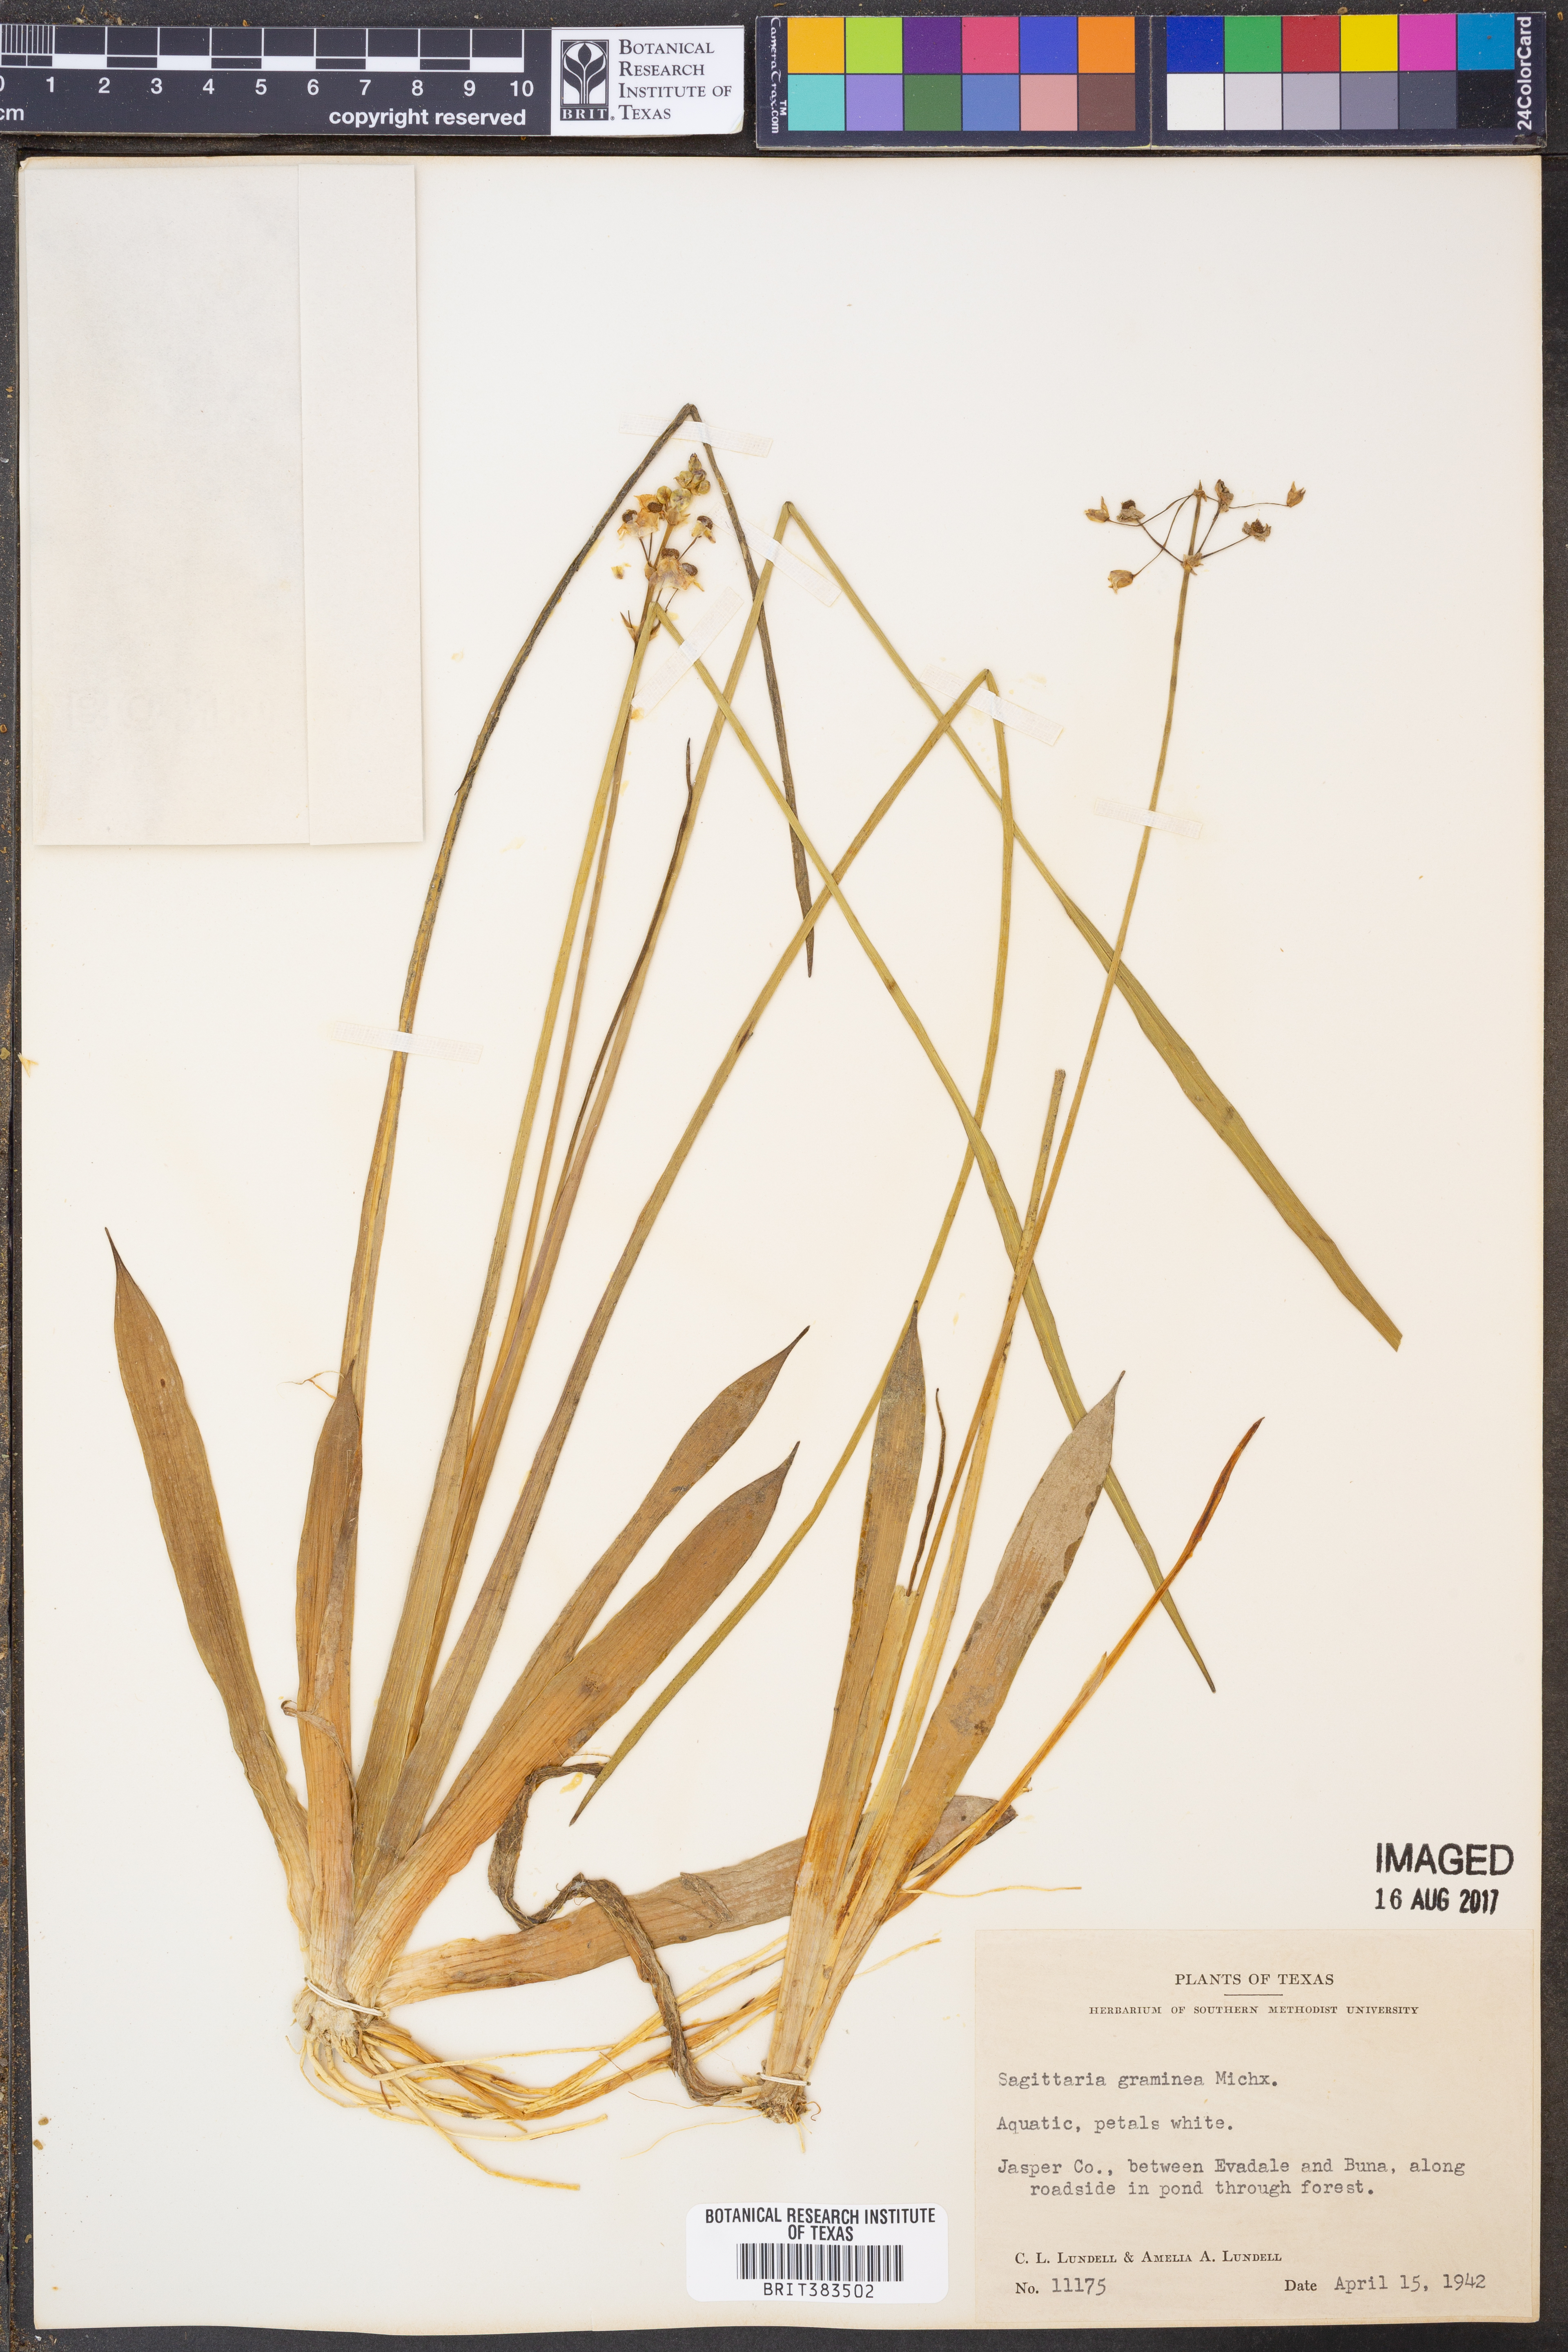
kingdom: Plantae
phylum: Tracheophyta
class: Liliopsida
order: Alismatales
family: Alismataceae
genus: Sagittaria
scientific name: Sagittaria graminea
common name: Grass-leaved arrowhead
